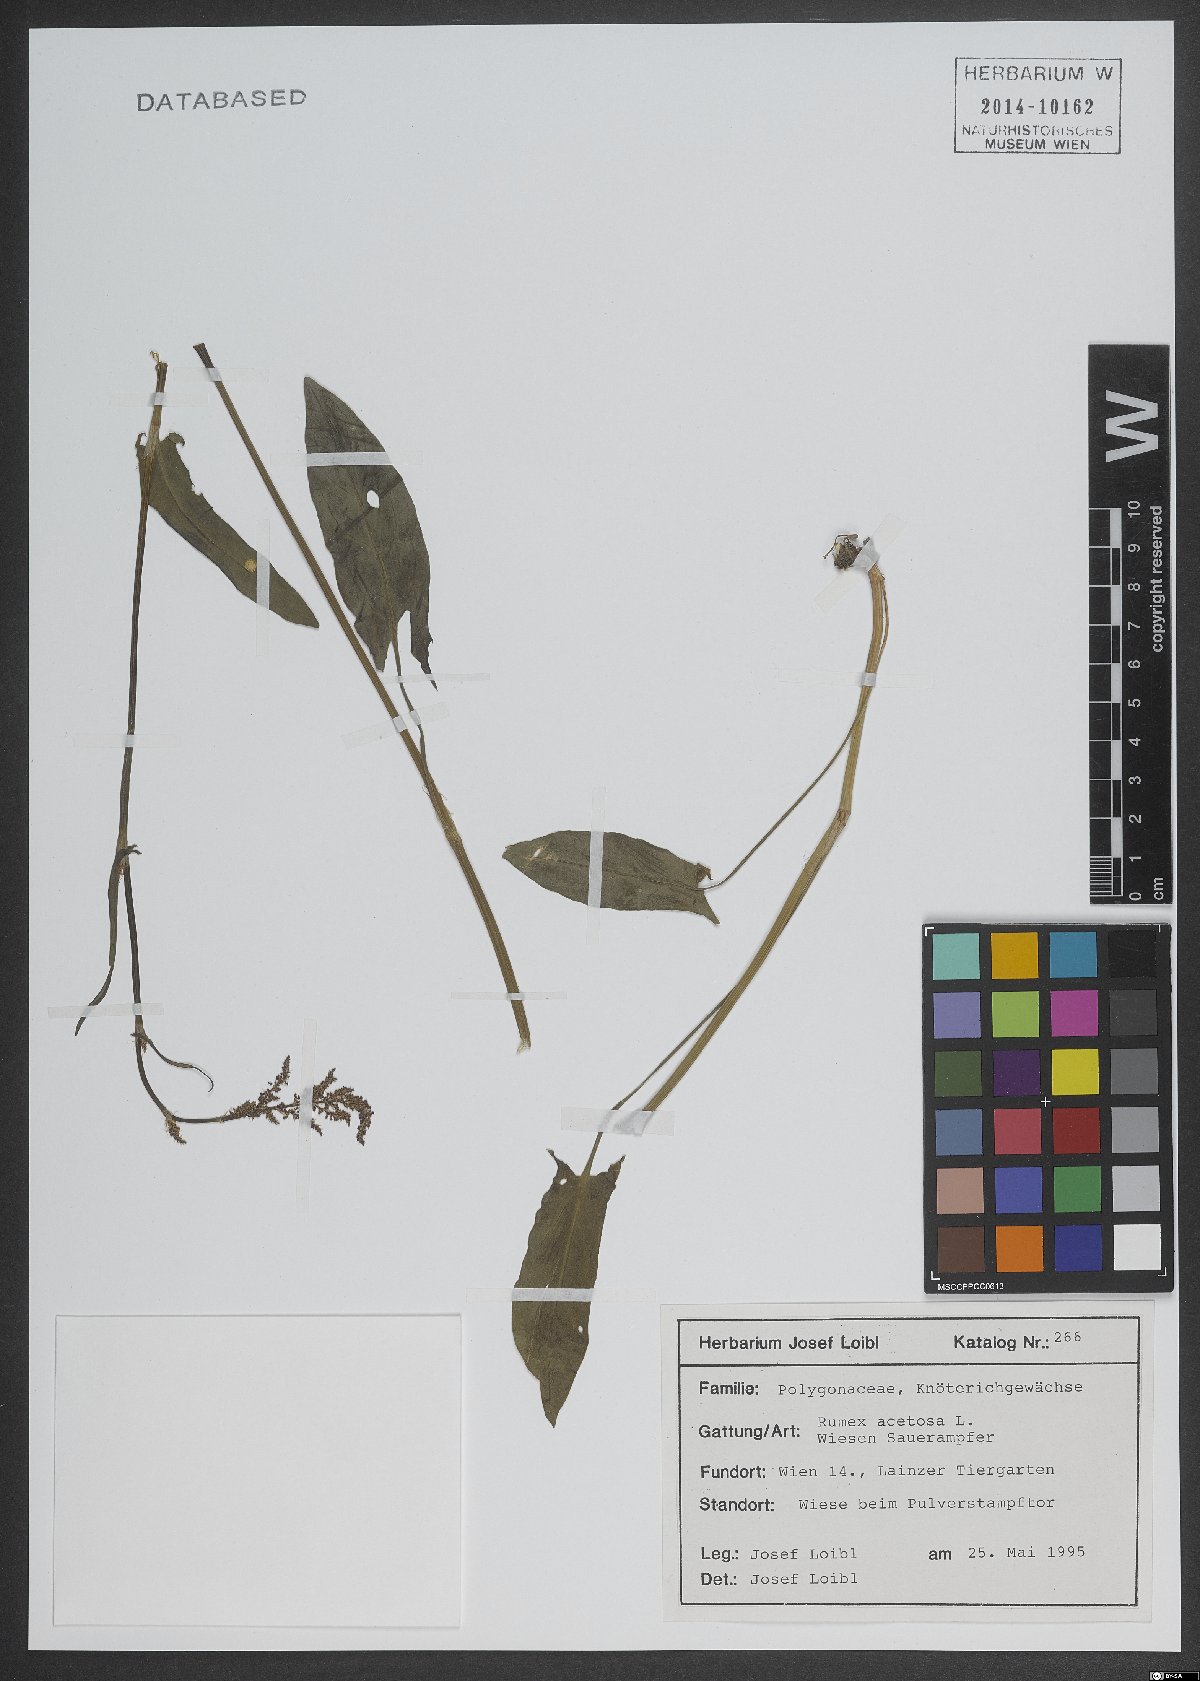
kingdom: Plantae
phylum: Tracheophyta
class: Magnoliopsida
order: Caryophyllales
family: Polygonaceae
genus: Rumex
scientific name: Rumex acetosa
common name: Garden sorrel
